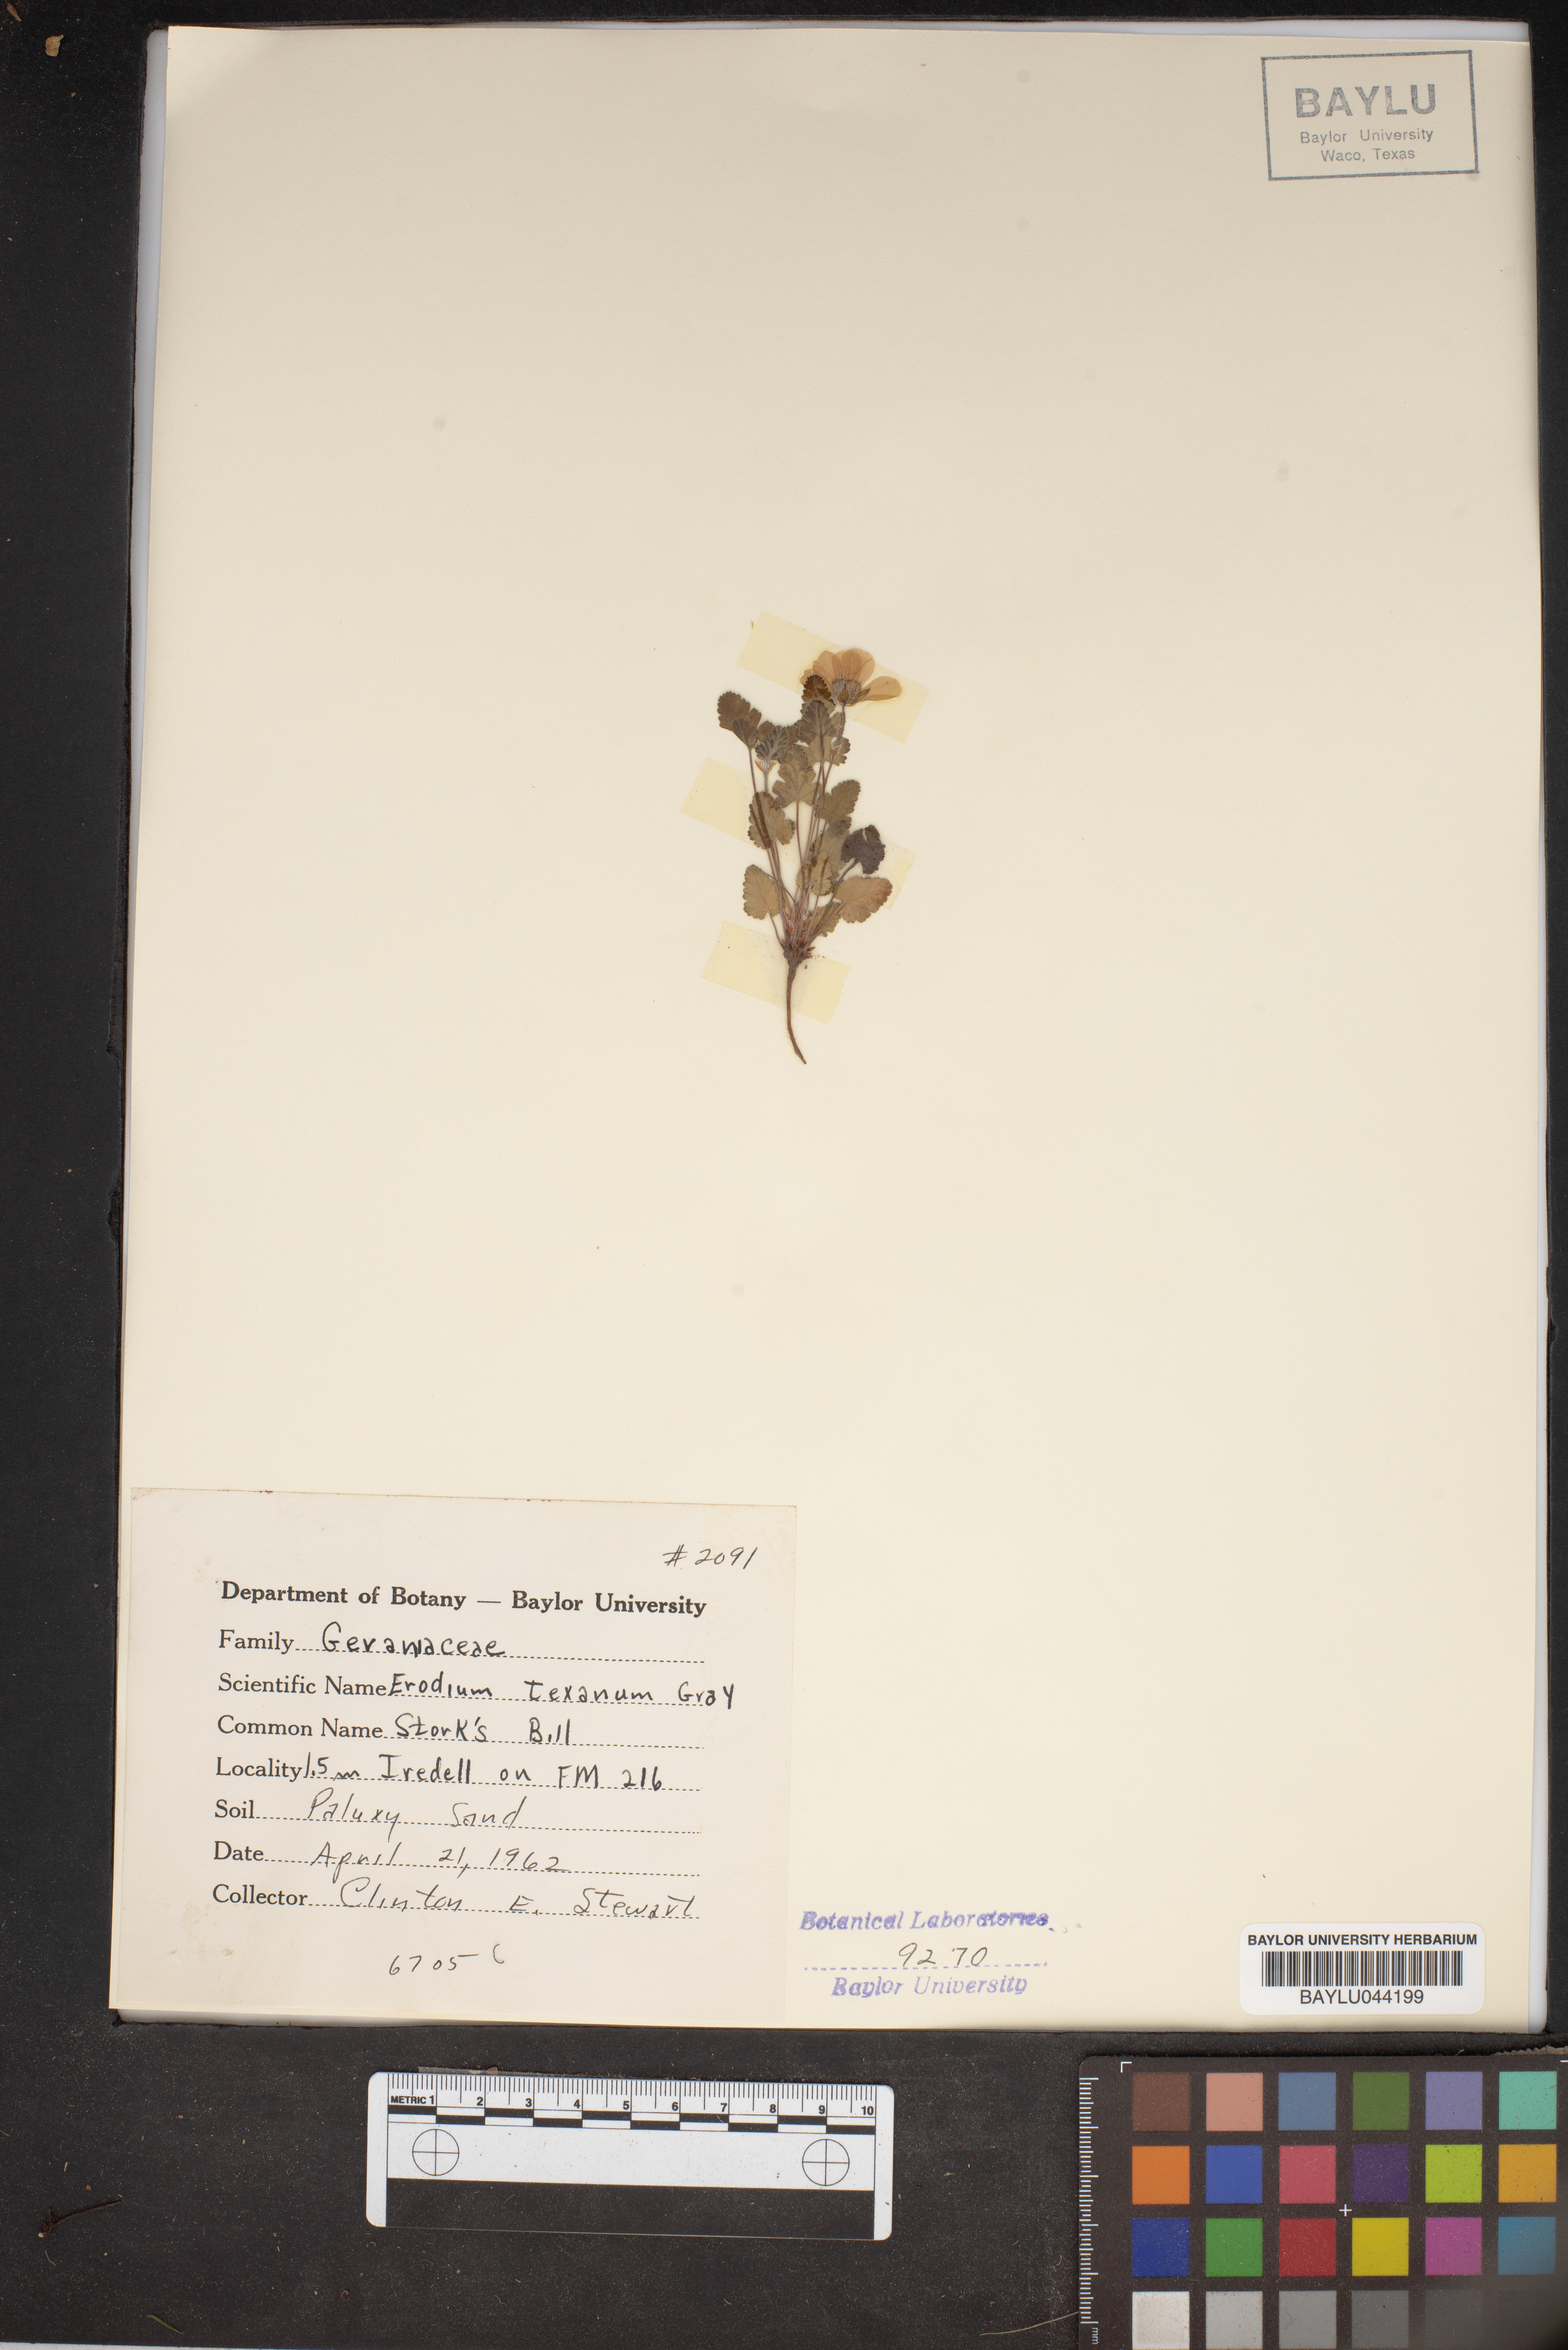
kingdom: Plantae
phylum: Tracheophyta
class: Magnoliopsida
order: Geraniales
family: Geraniaceae
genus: Erodium
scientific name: Erodium texanum
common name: Texas stork's-bill
